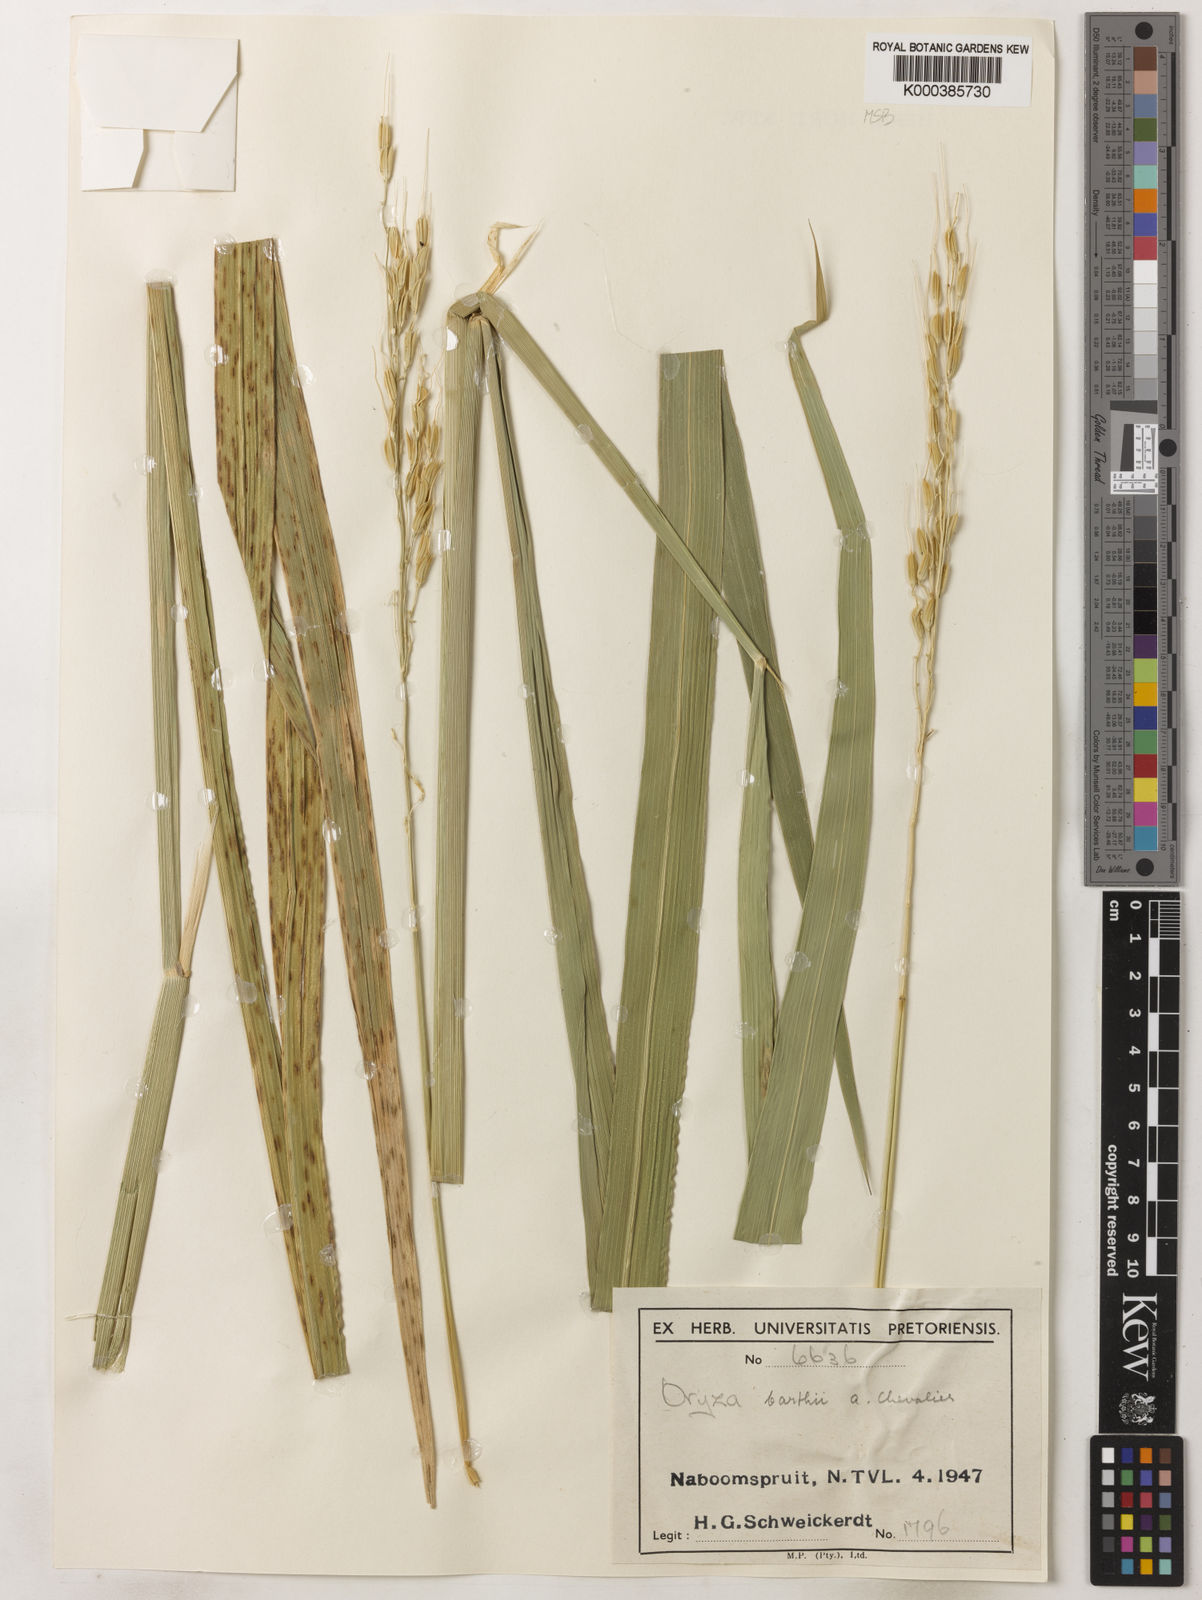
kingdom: Plantae
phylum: Tracheophyta
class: Liliopsida
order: Poales
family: Poaceae
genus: Oryza
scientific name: Oryza longistaminata
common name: Red rice
